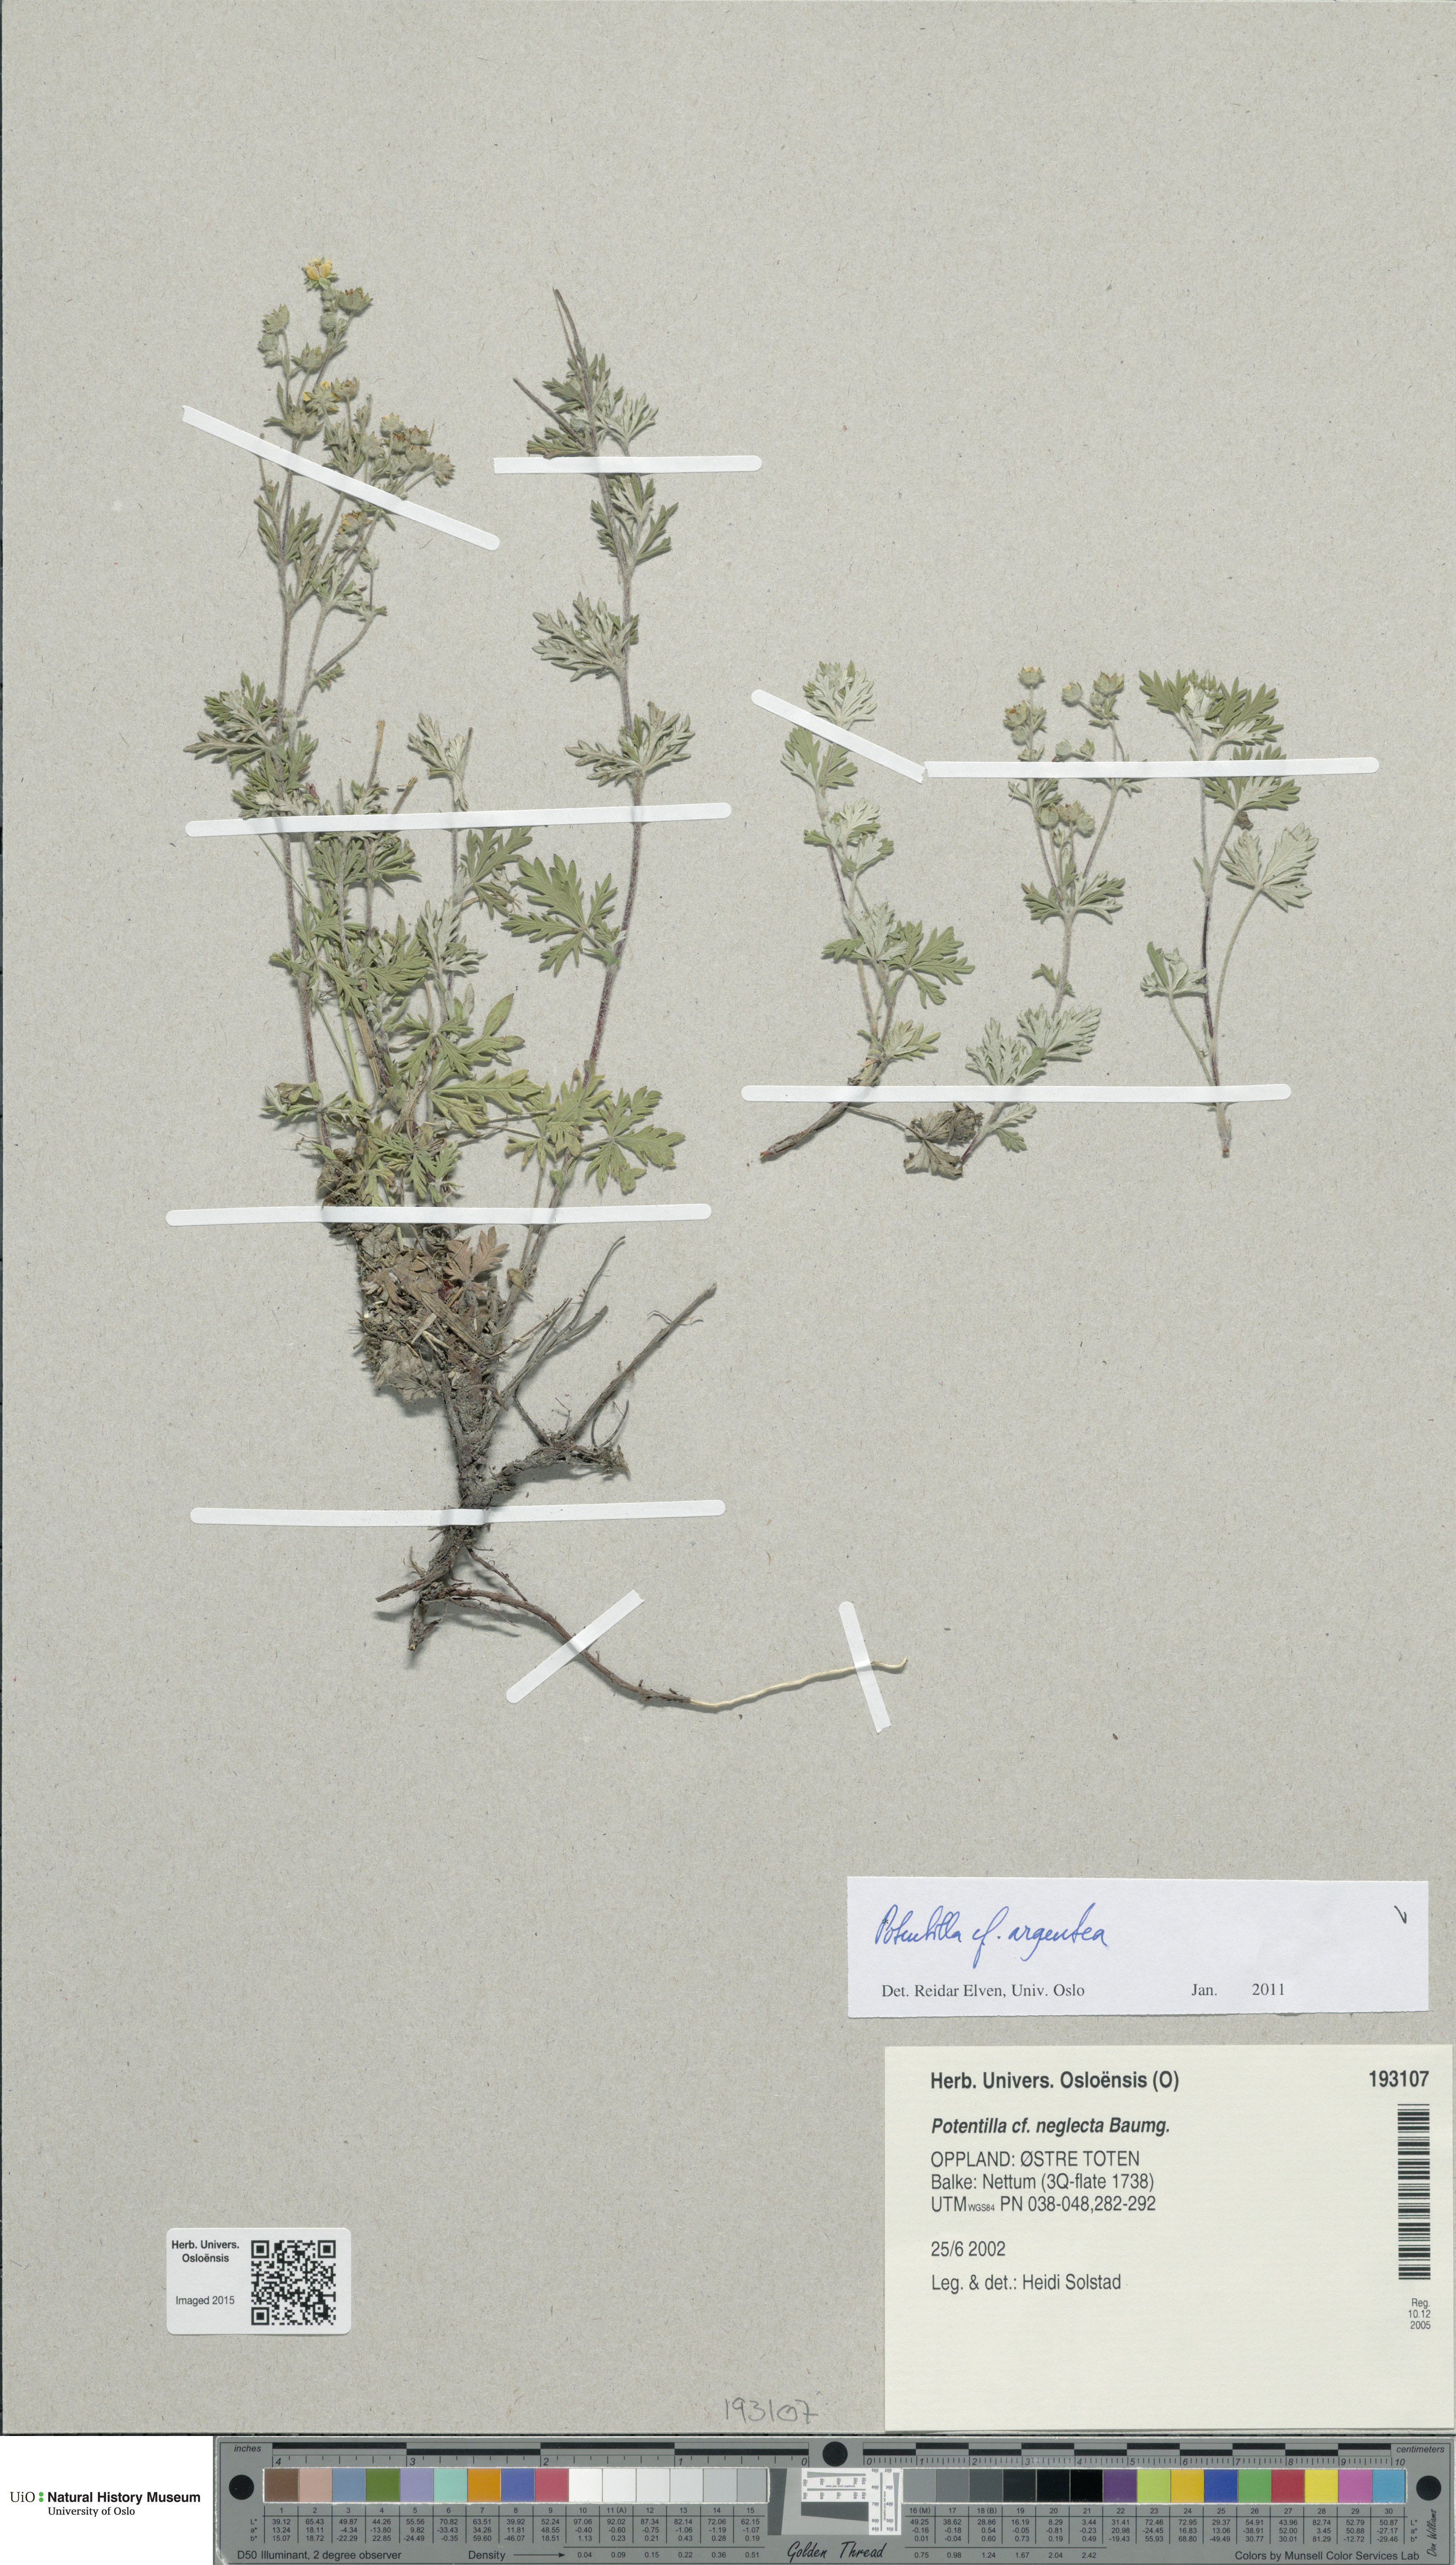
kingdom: Plantae
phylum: Tracheophyta
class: Magnoliopsida
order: Rosales
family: Rosaceae
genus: Potentilla
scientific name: Potentilla argentea
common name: Hoary cinquefoil
